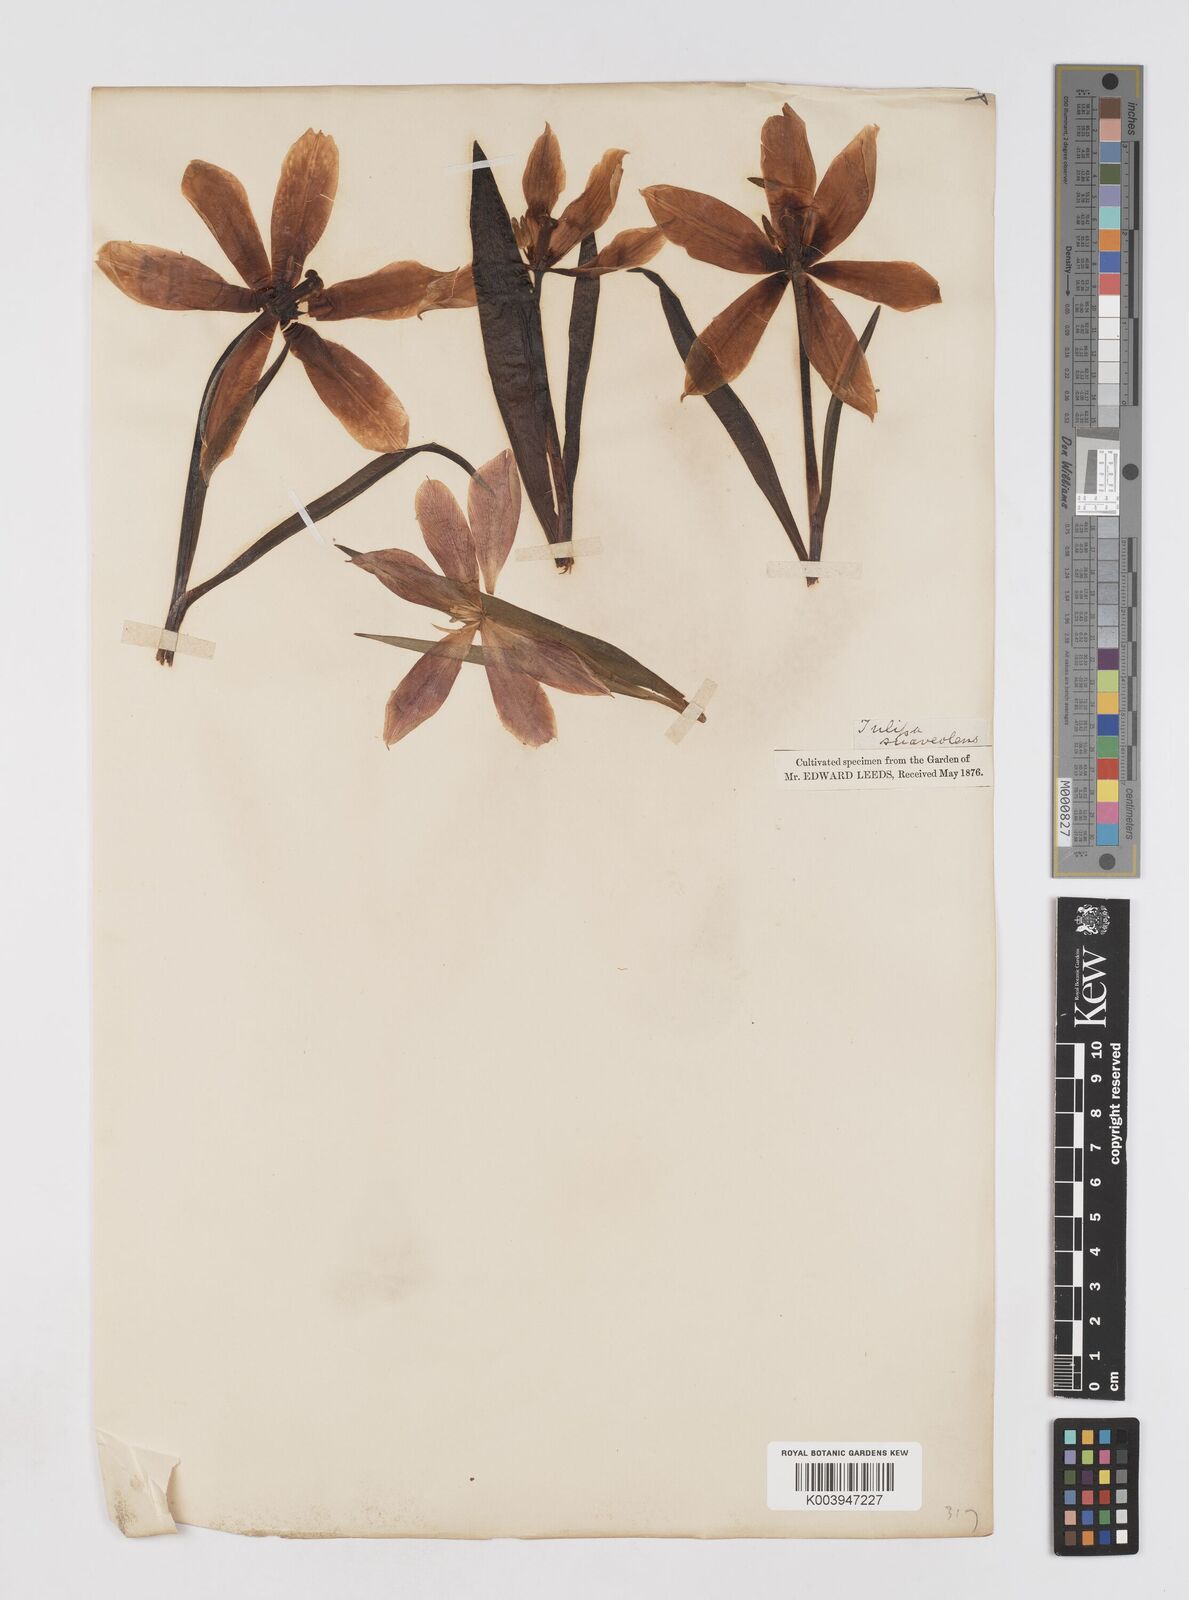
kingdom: Plantae
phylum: Tracheophyta
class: Liliopsida
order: Liliales
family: Liliaceae
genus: Tulipa
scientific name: Tulipa suaveolens
